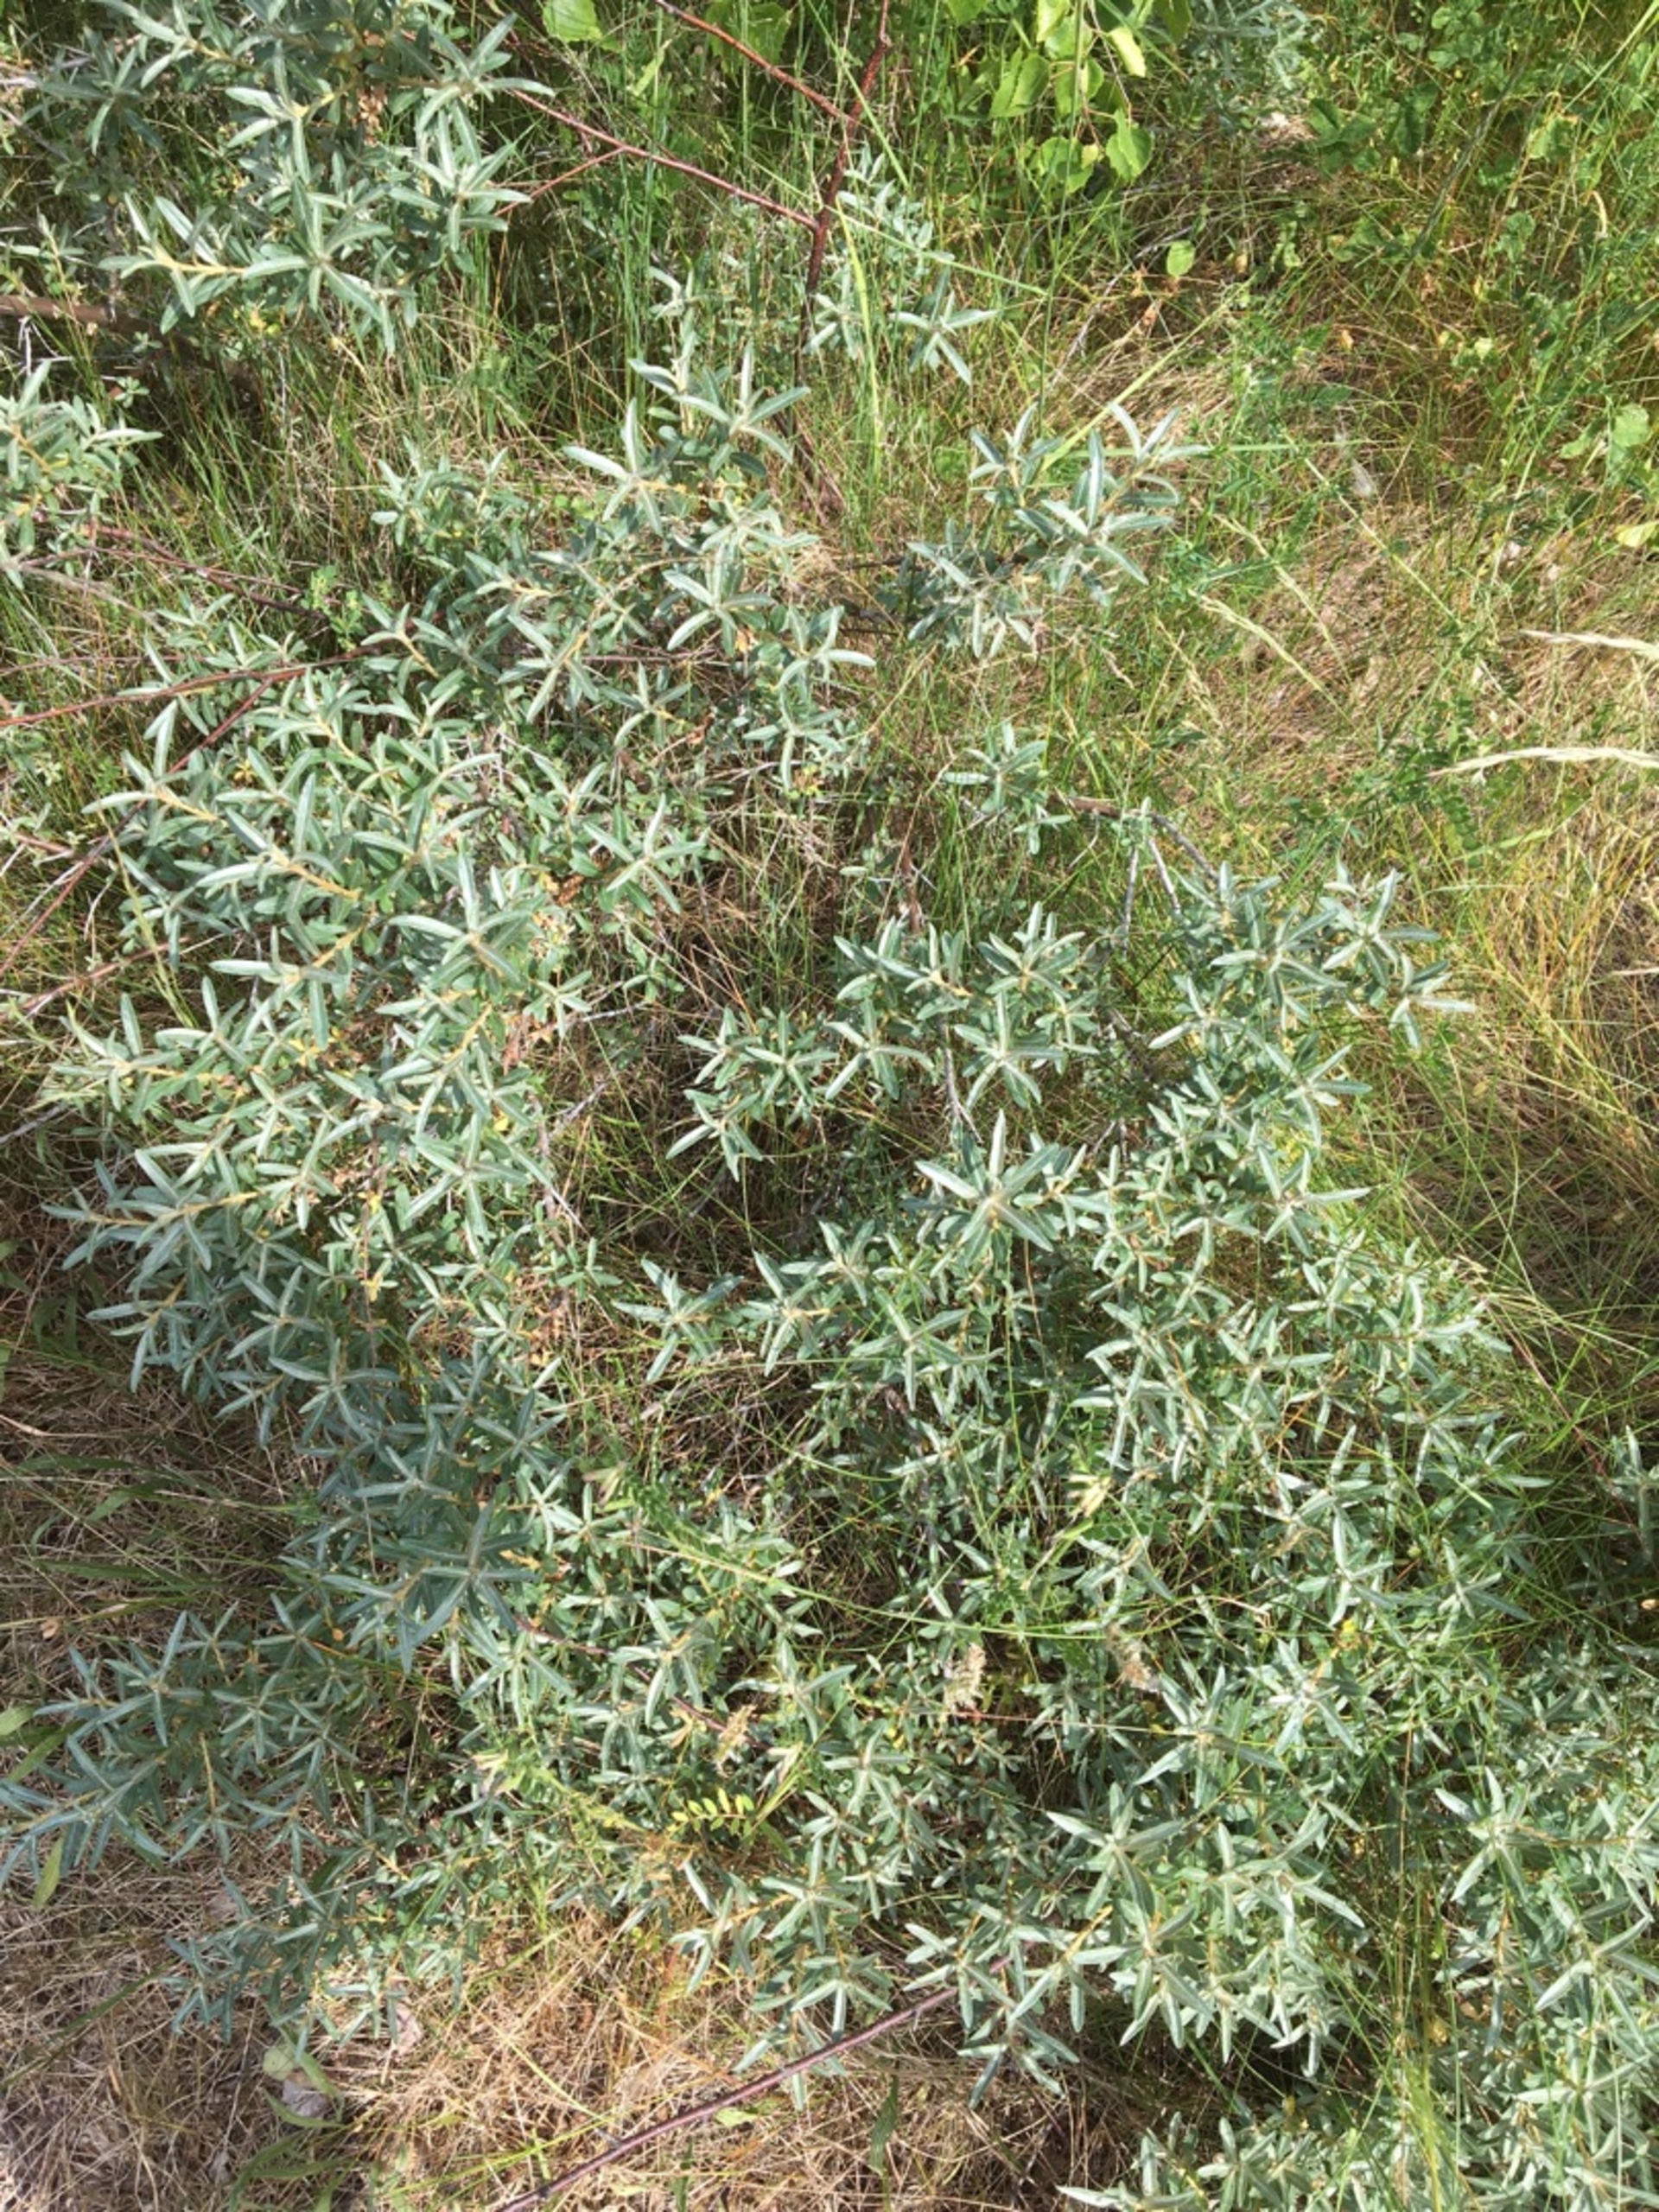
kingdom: Plantae
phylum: Tracheophyta
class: Magnoliopsida
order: Rosales
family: Elaeagnaceae
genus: Hippophae
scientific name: Hippophae rhamnoides
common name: Havtorn
